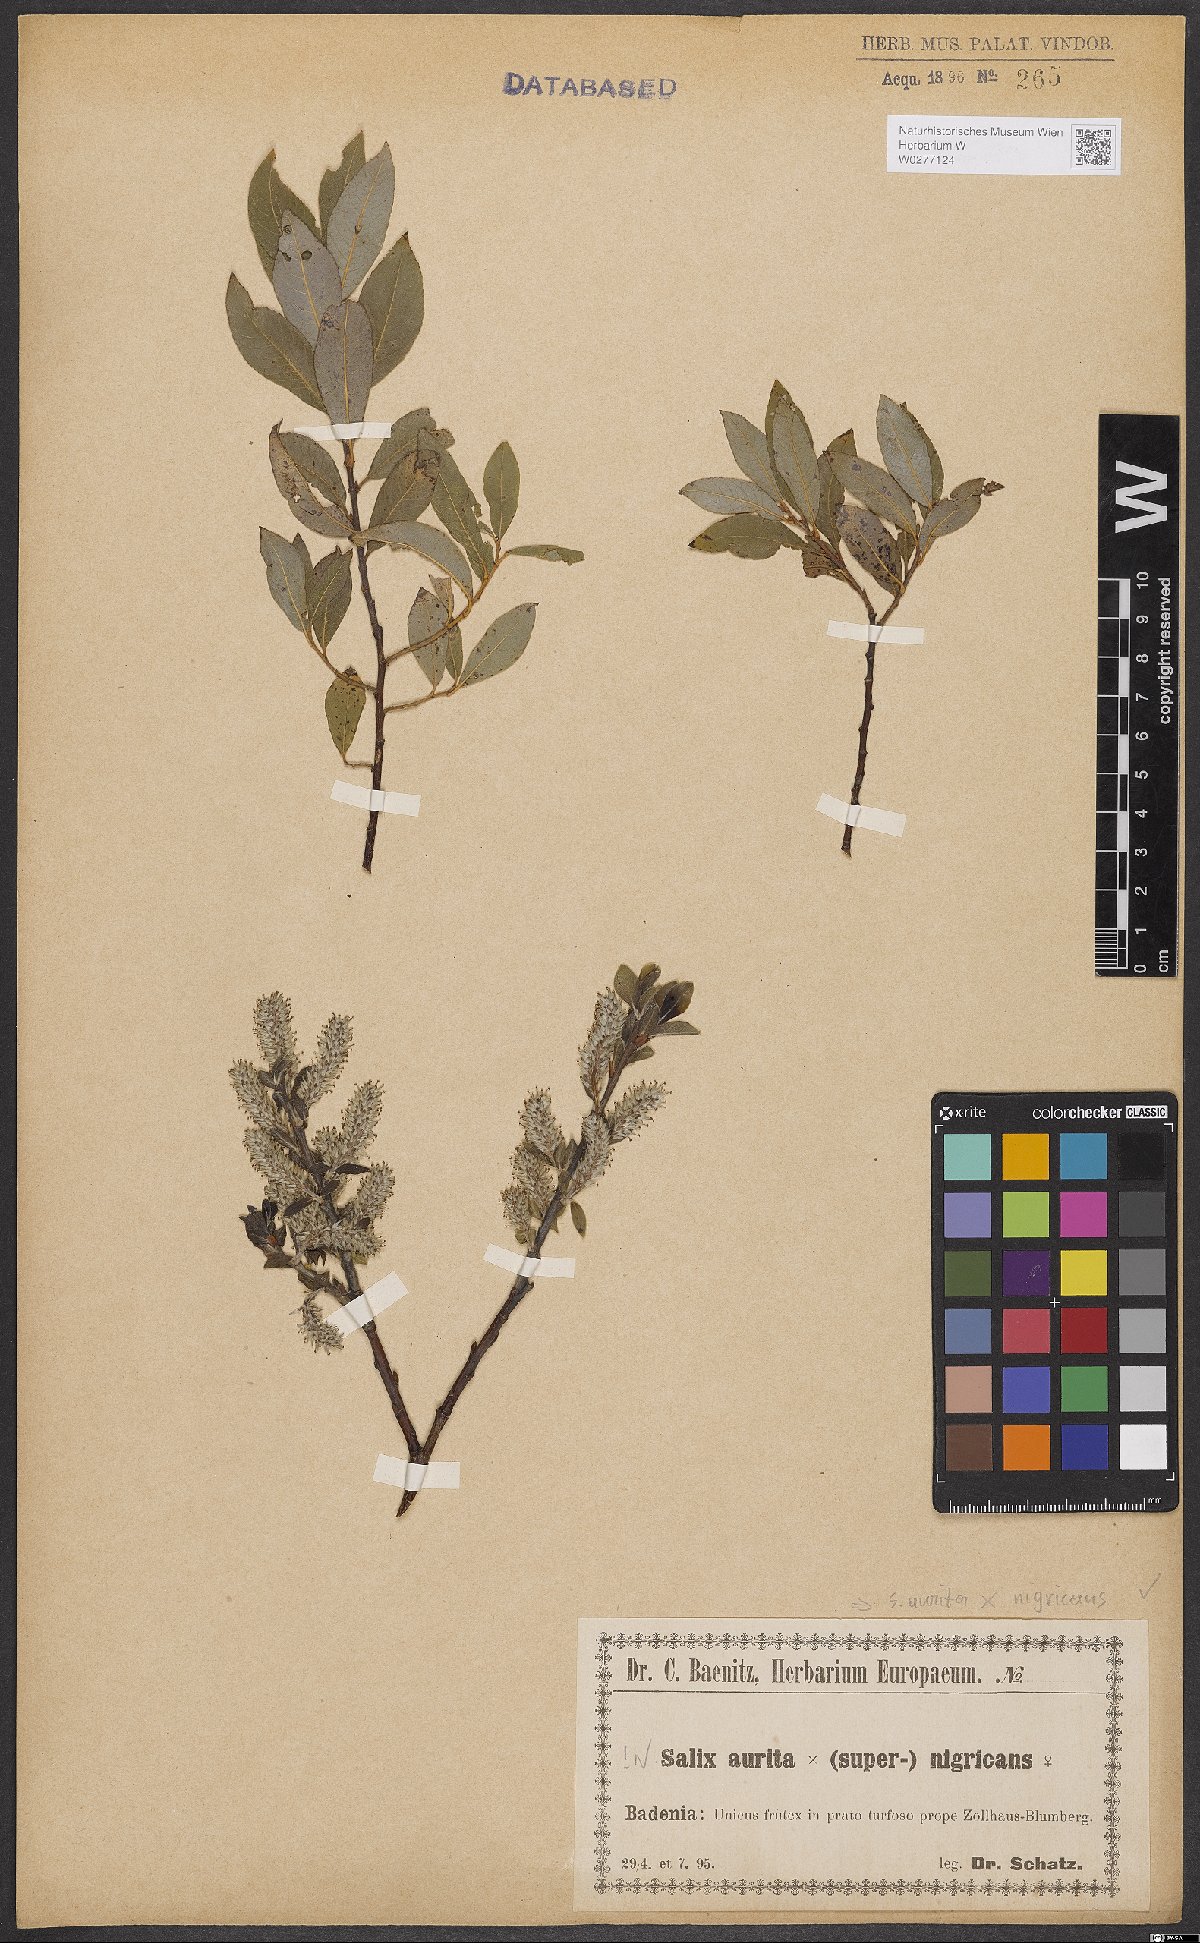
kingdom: Plantae
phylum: Tracheophyta
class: Magnoliopsida
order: Malpighiales
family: Salicaceae
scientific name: Salicaceae
